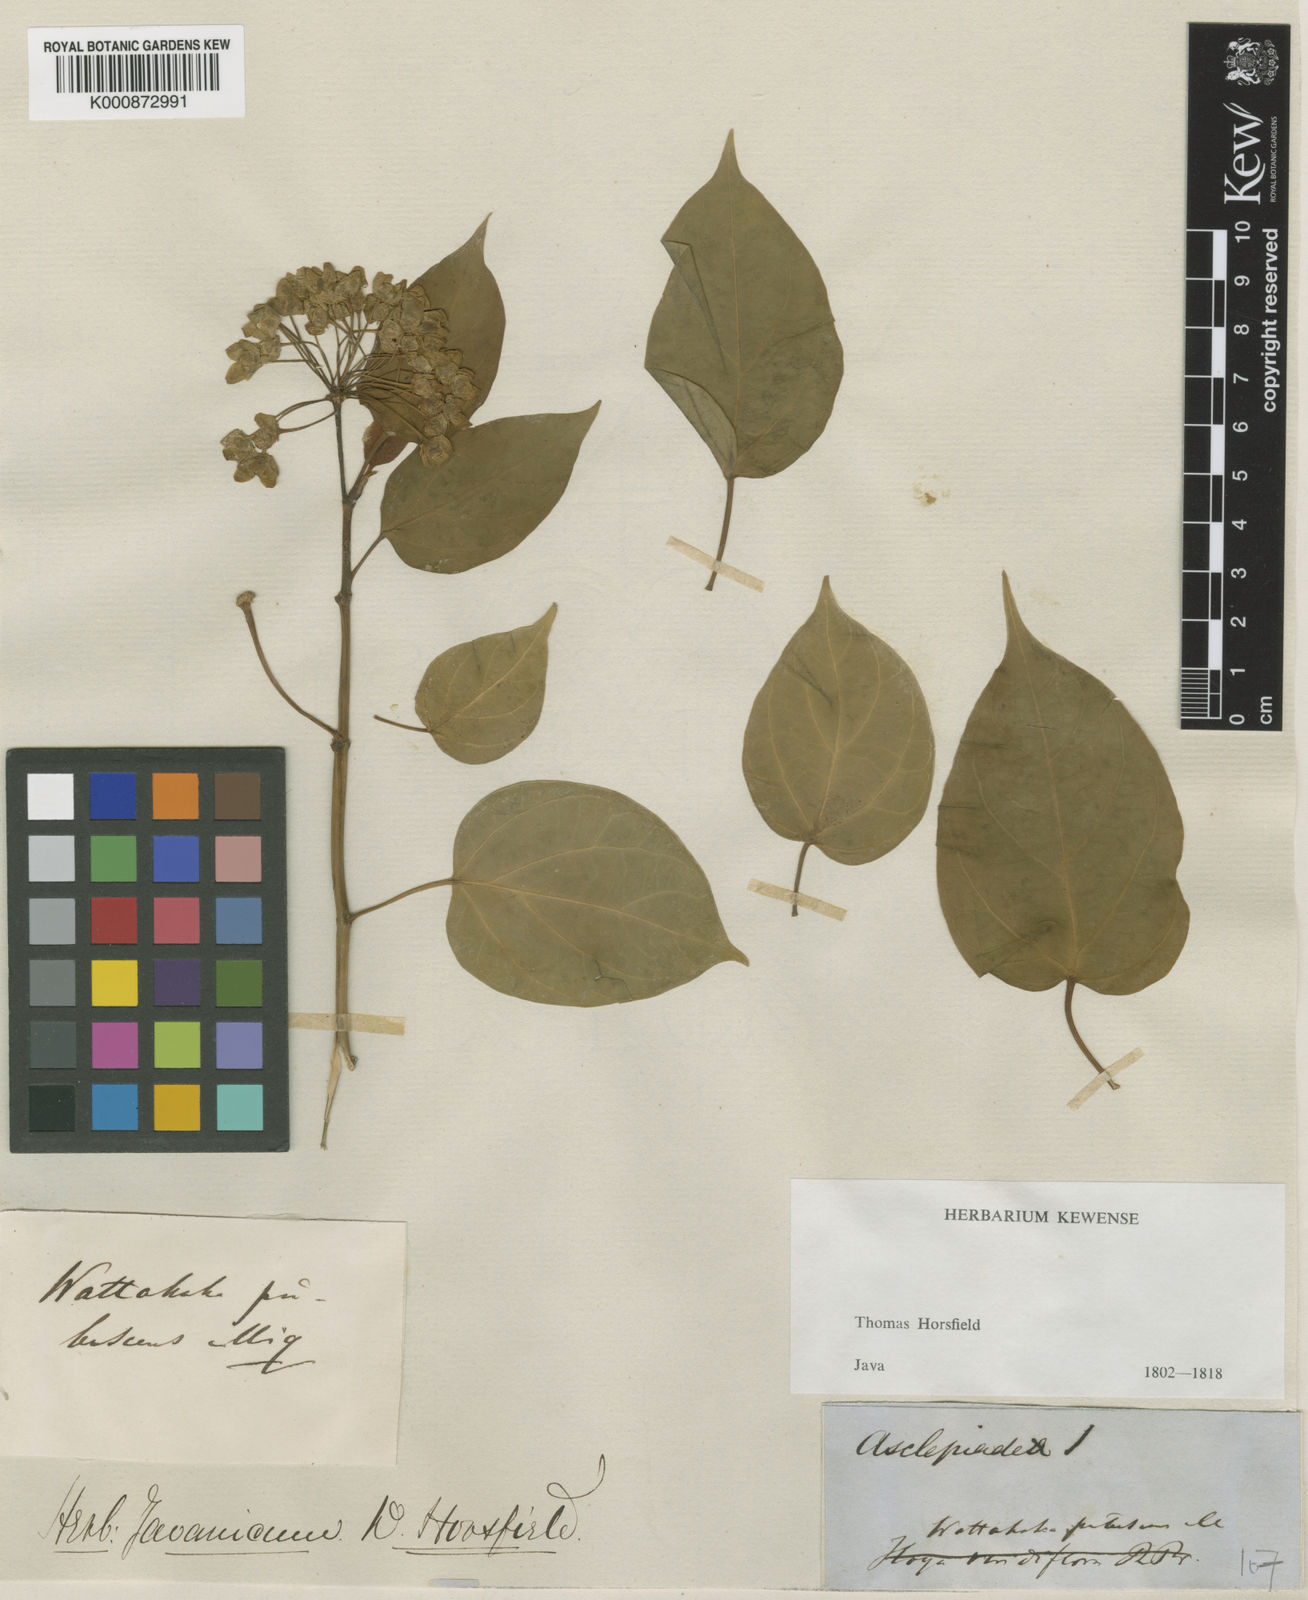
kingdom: Plantae
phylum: Tracheophyta
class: Magnoliopsida
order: Gentianales
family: Apocynaceae
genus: Stephanotis
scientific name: Stephanotis volubilis
